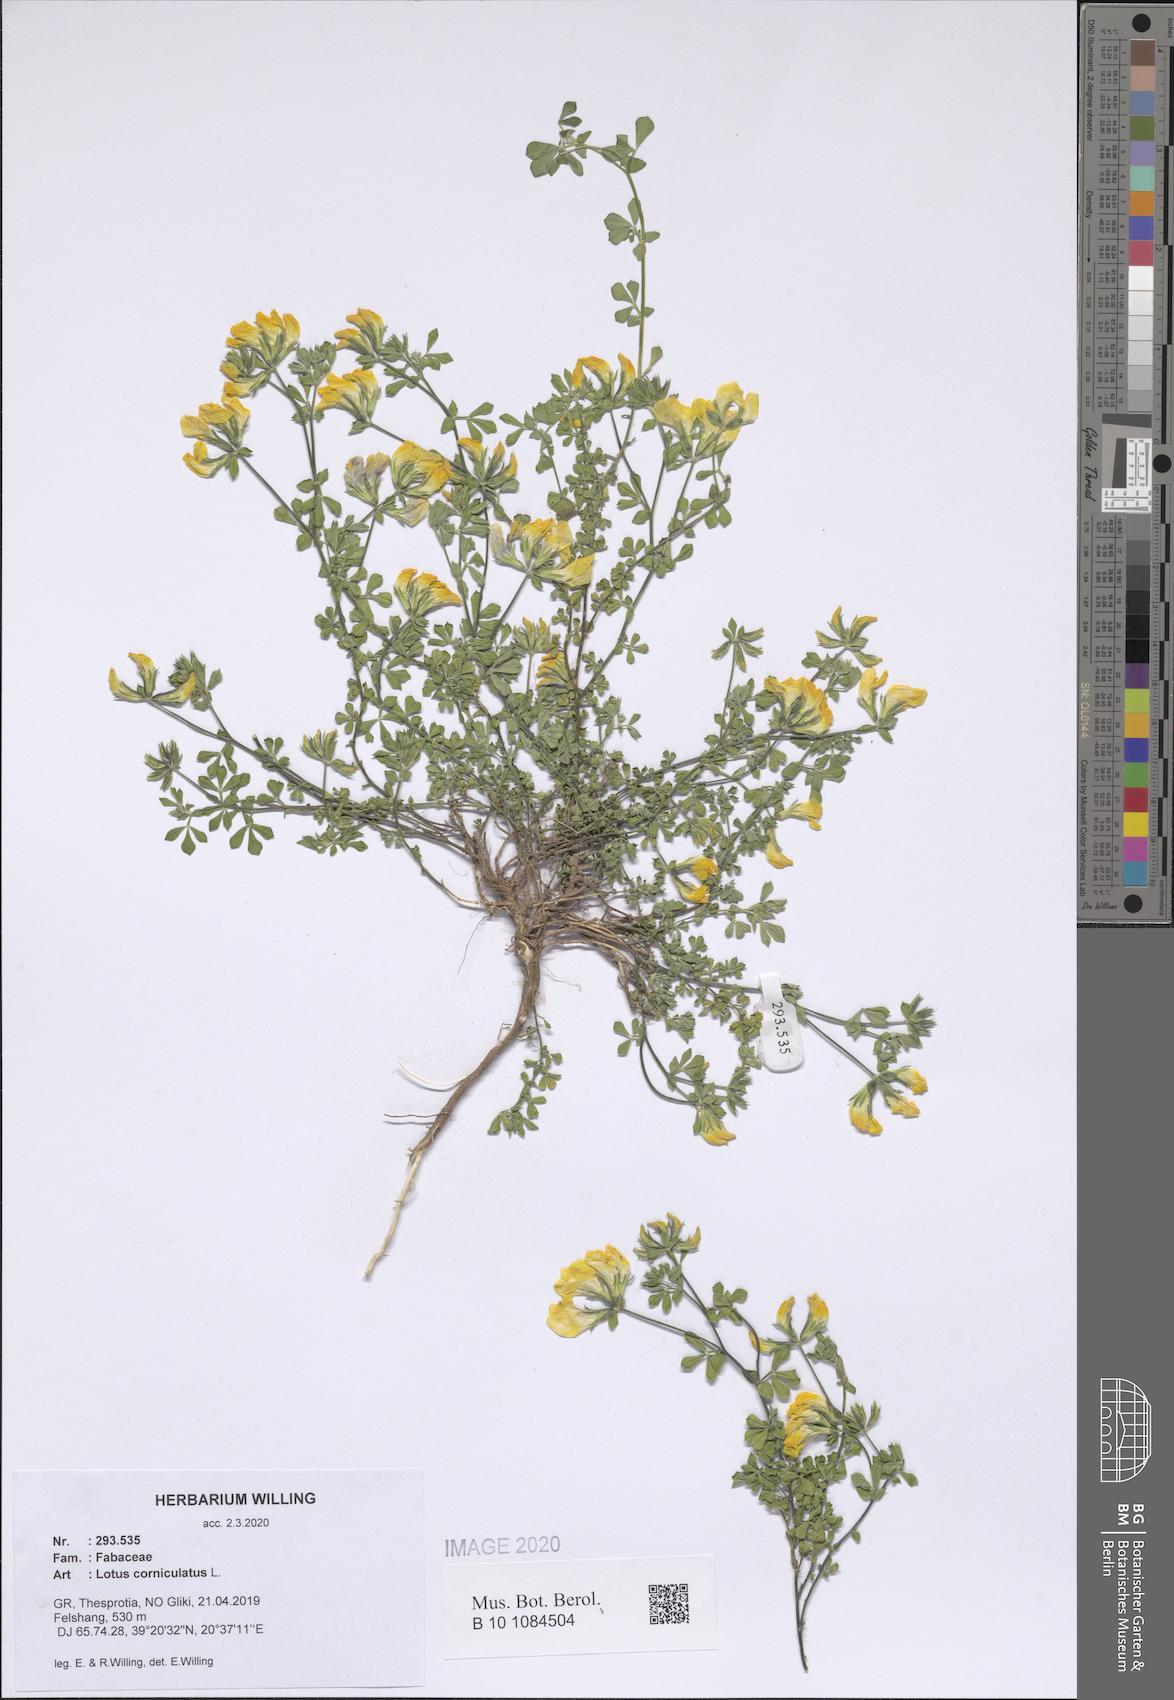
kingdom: Plantae
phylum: Tracheophyta
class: Magnoliopsida
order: Fabales
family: Fabaceae
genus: Lotus
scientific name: Lotus corniculatus
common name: Common bird's-foot-trefoil
